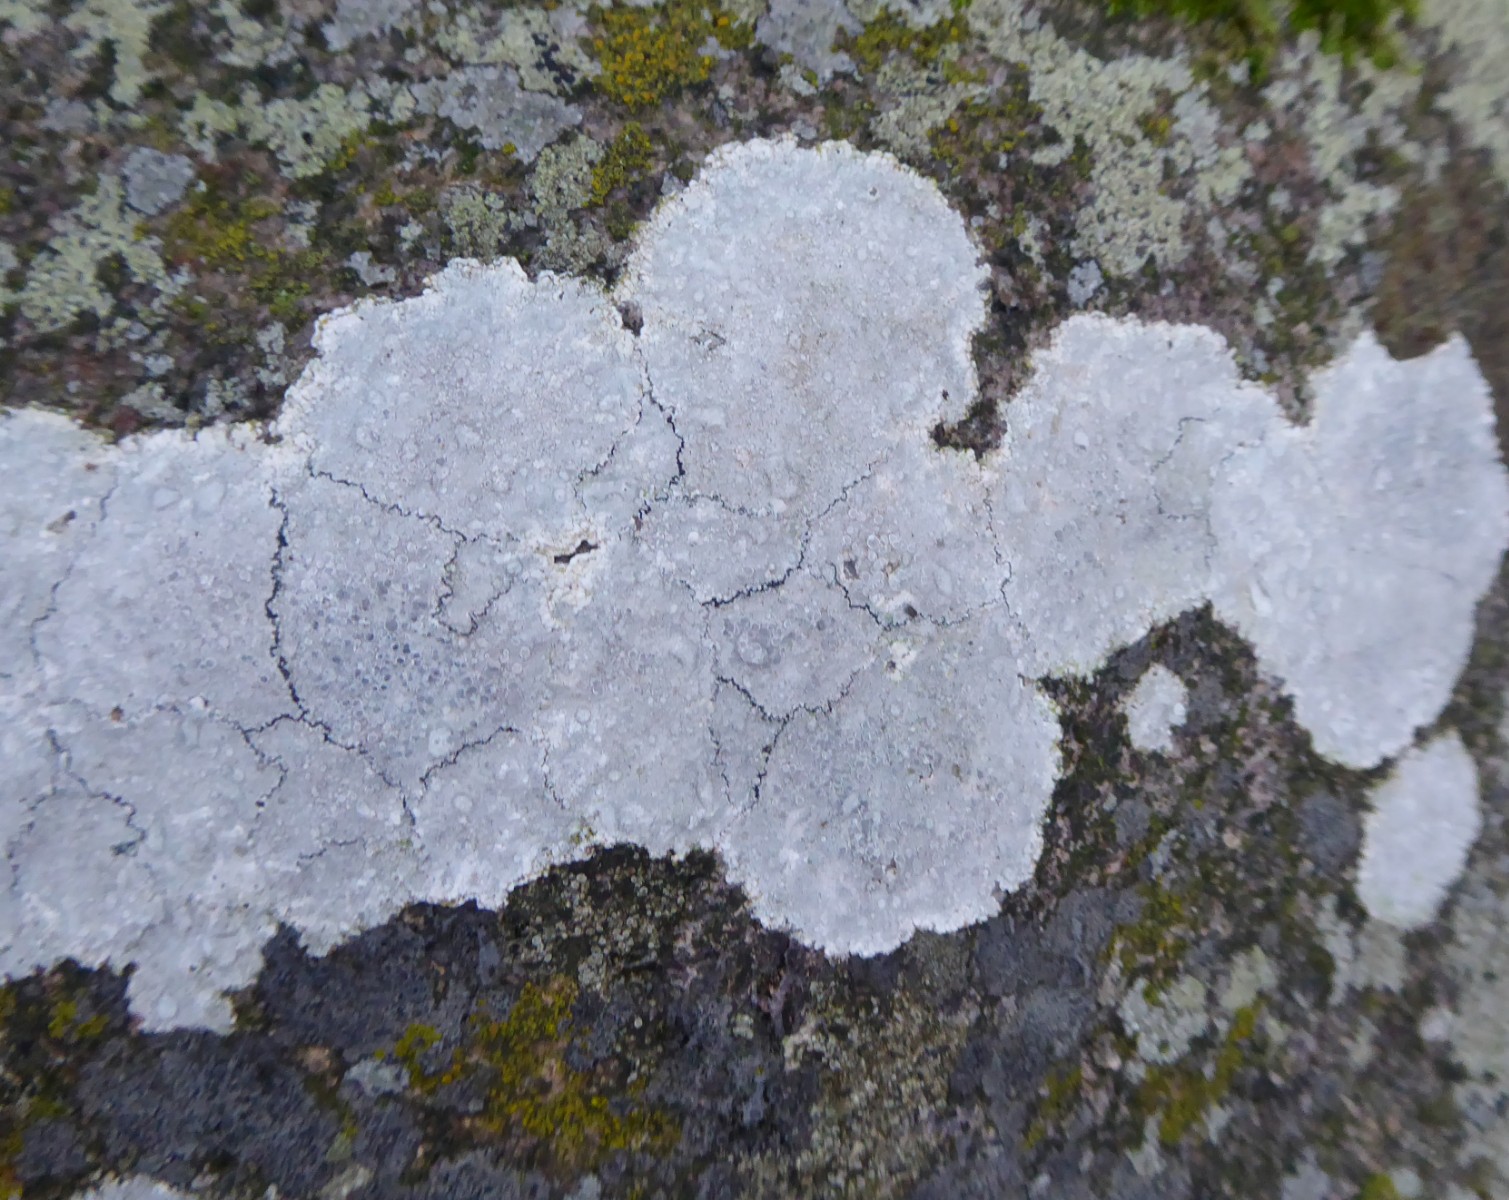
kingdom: Fungi
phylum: Ascomycota
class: Lecanoromycetes
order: Lecanorales
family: Lecanoraceae
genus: Glaucomaria
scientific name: Glaucomaria rupicola
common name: stengærde-kantskivelav
